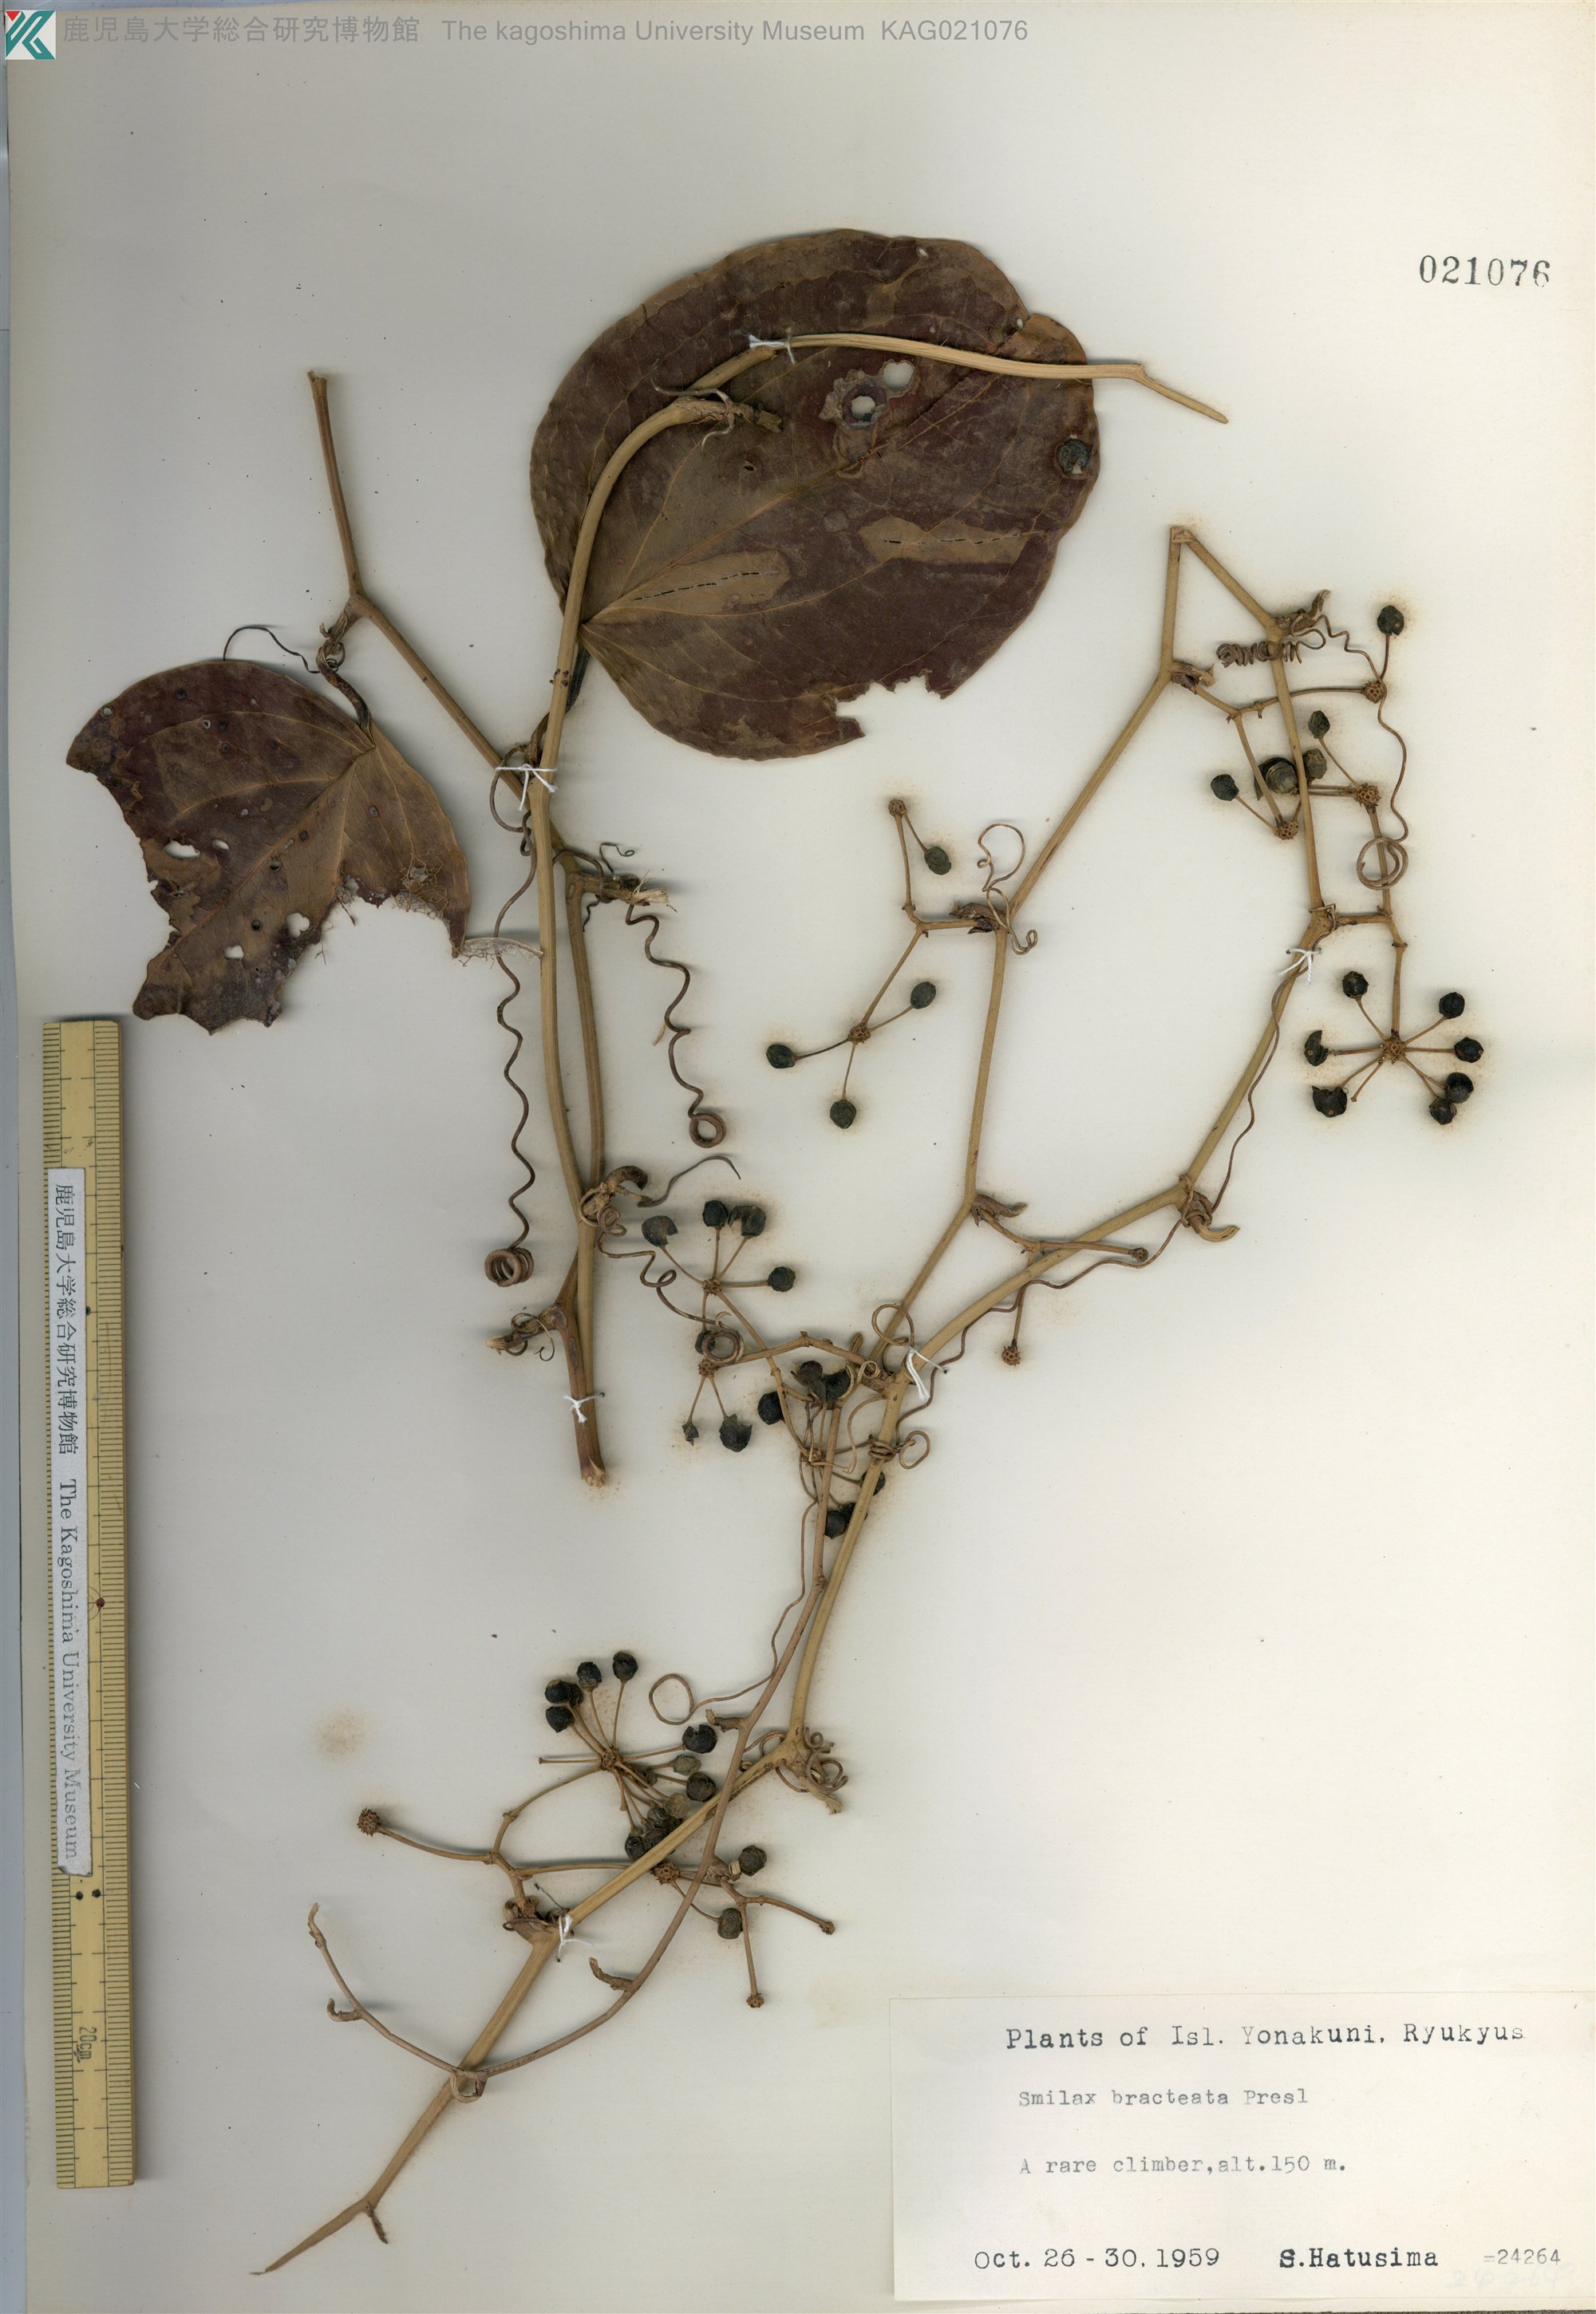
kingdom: Plantae
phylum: Tracheophyta
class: Liliopsida
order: Liliales
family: Smilacaceae
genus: Smilax
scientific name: Smilax bracteata
